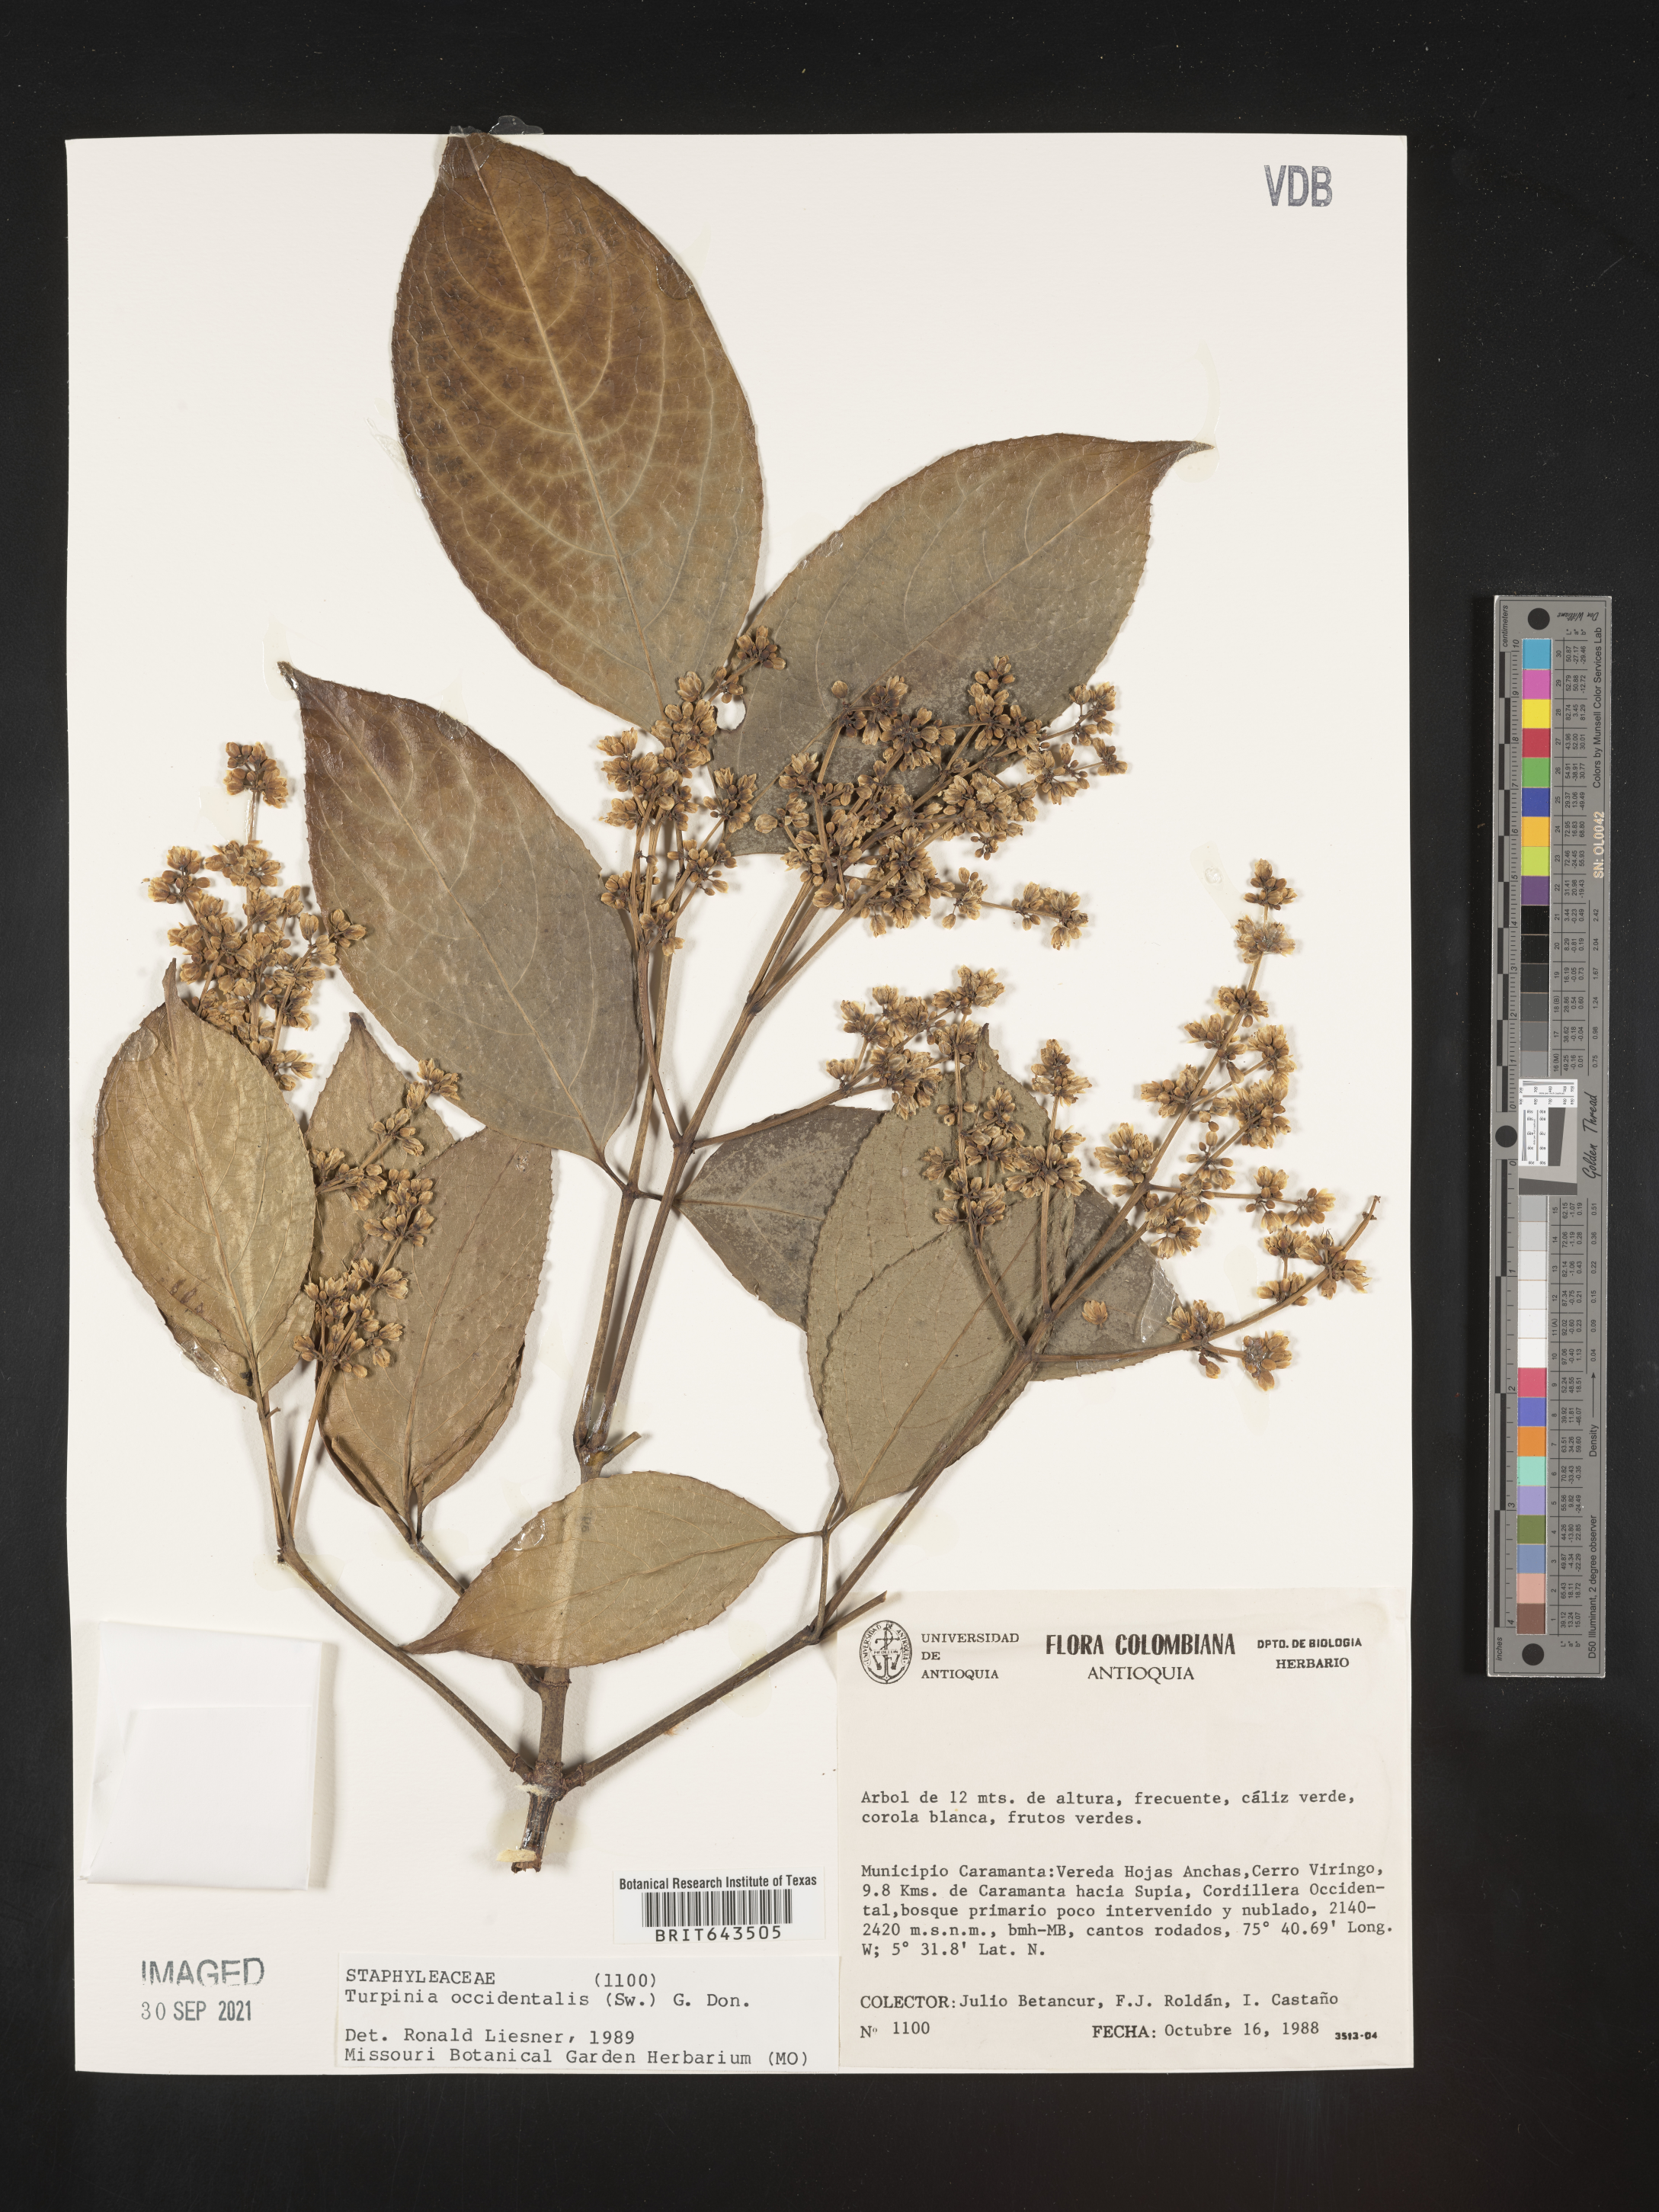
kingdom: Plantae
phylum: Tracheophyta
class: Magnoliopsida
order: Crossosomatales
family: Staphyleaceae
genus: Turpinia
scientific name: Turpinia
